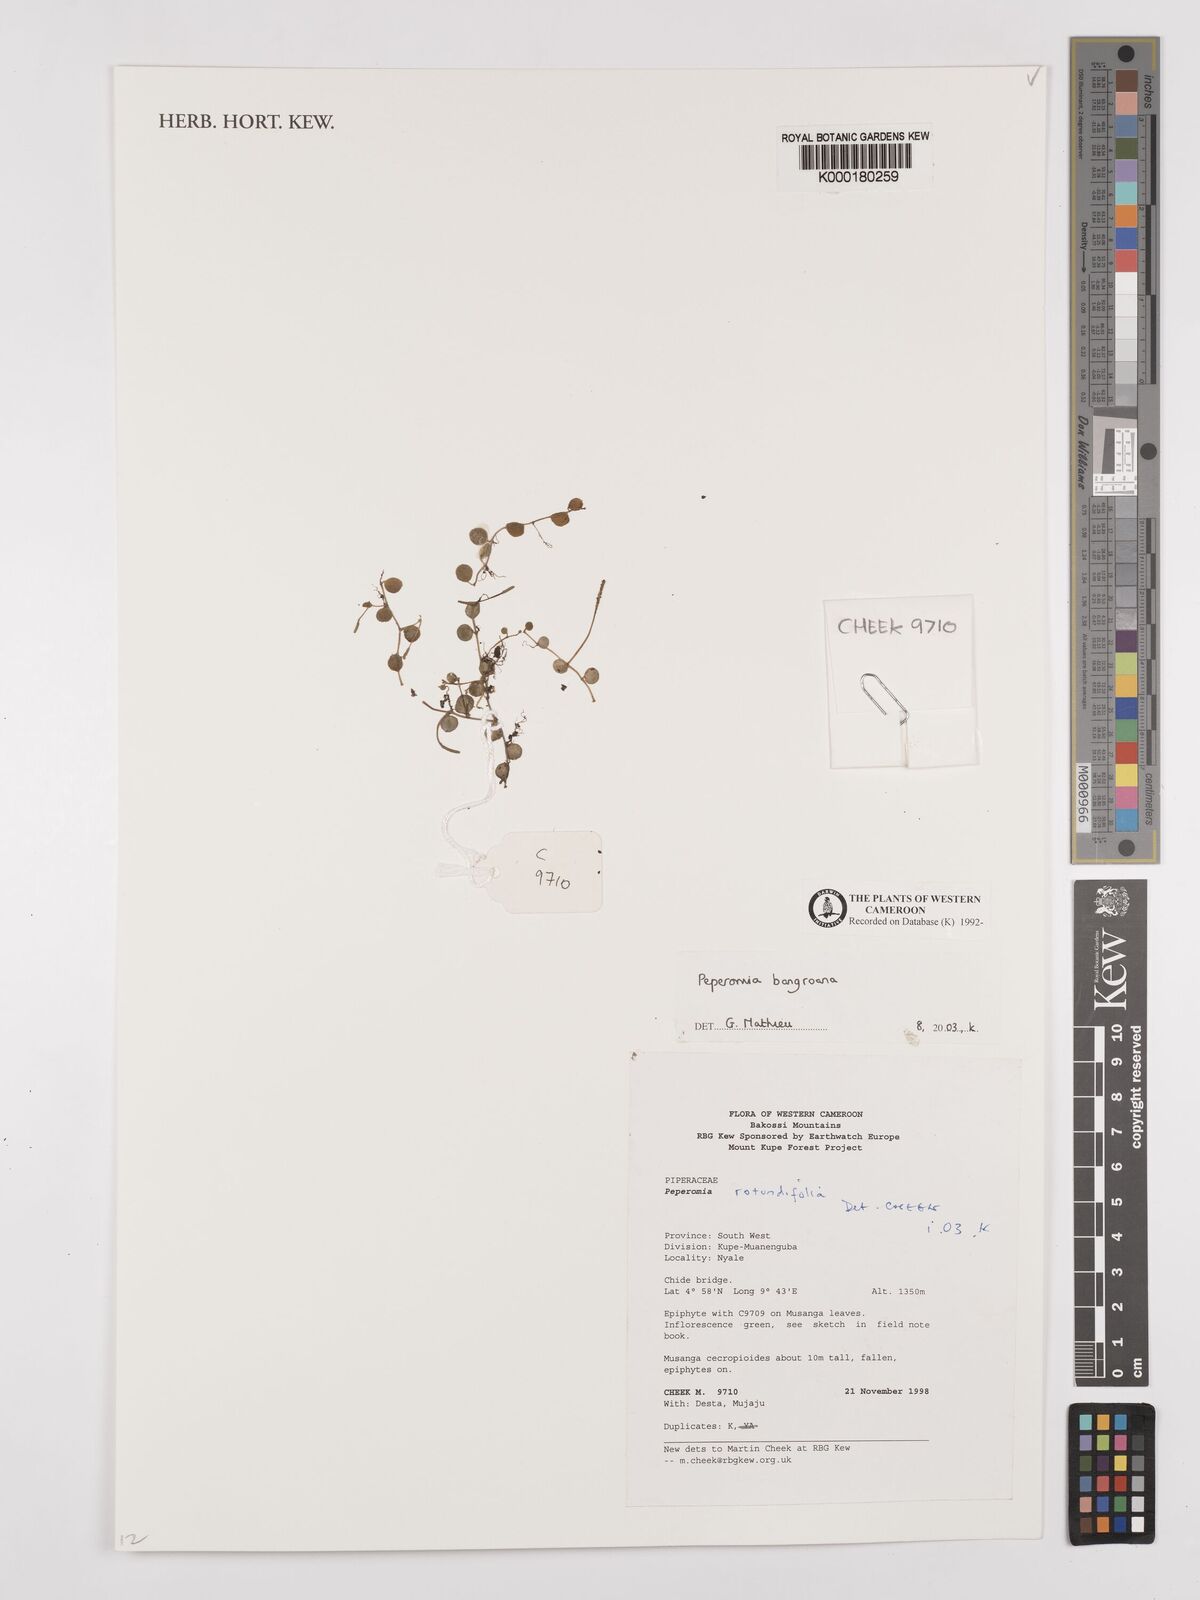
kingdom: Plantae
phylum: Tracheophyta
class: Magnoliopsida
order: Piperales
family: Piperaceae
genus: Peperomia
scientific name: Peperomia bangroana
